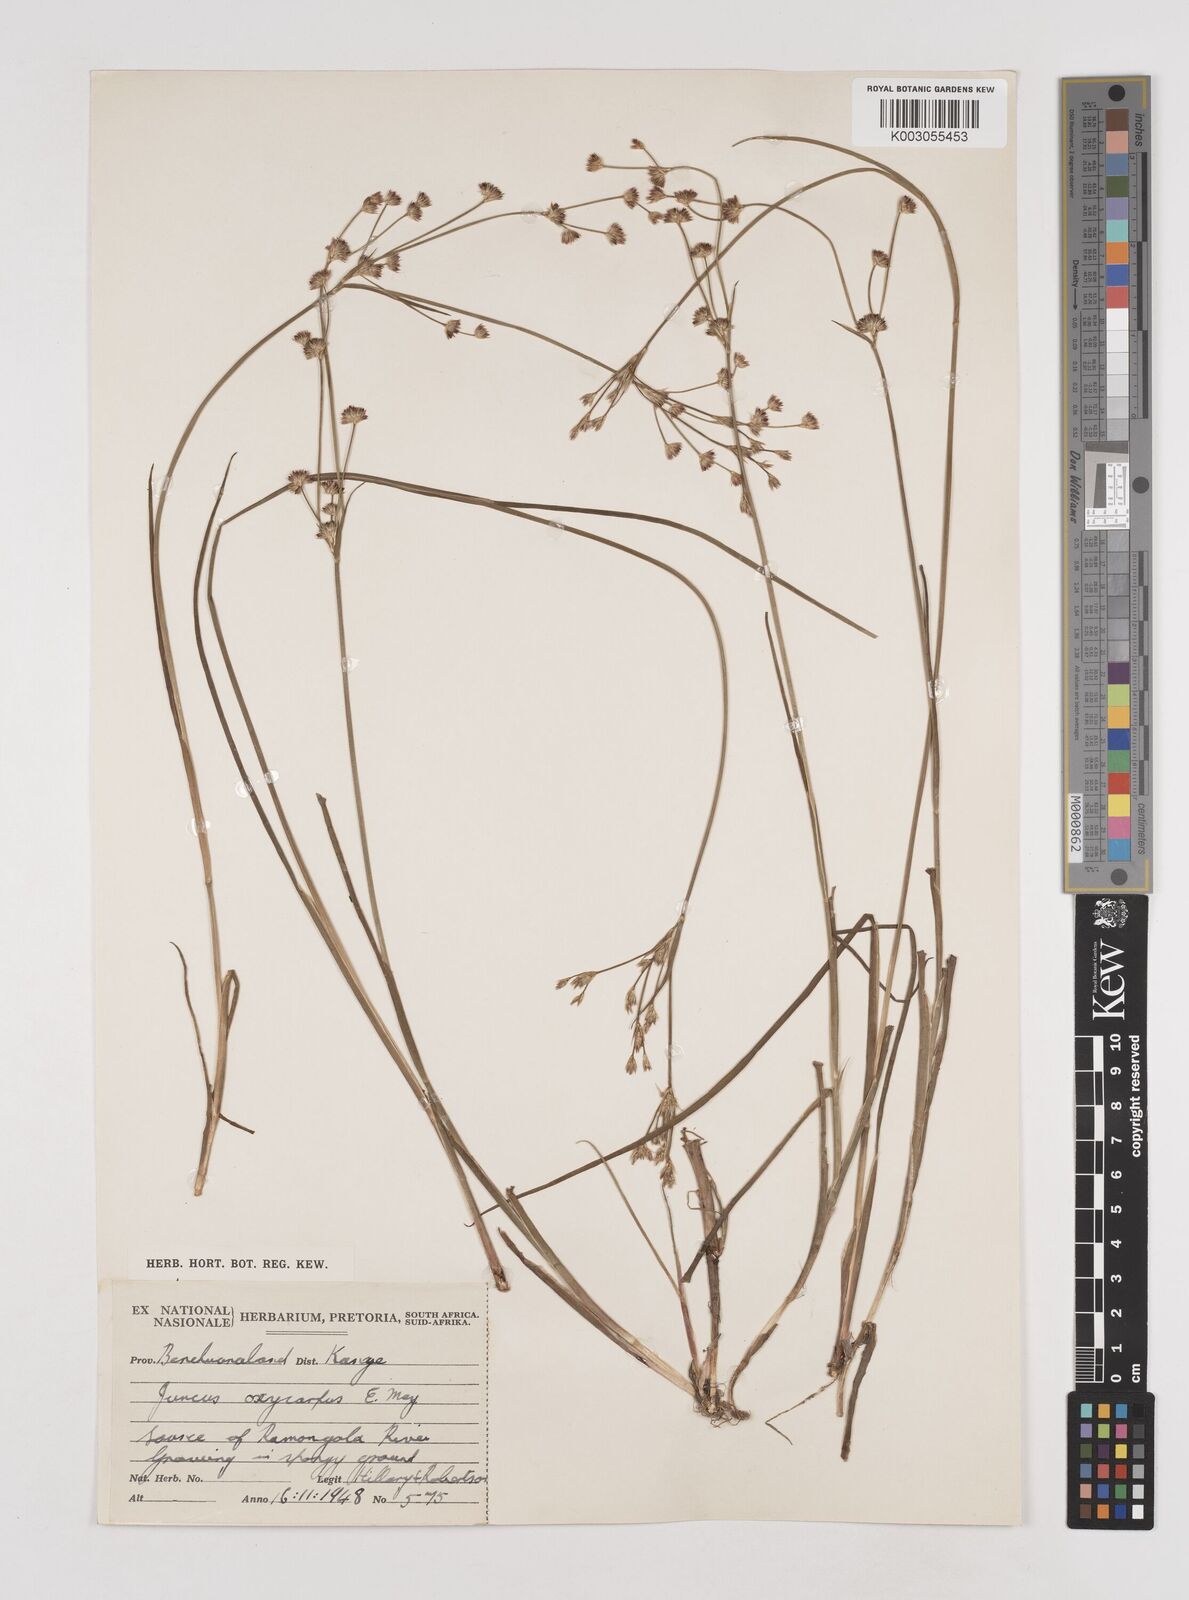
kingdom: Plantae
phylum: Tracheophyta
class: Liliopsida
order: Poales
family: Juncaceae
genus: Juncus
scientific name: Juncus oxycarpus
